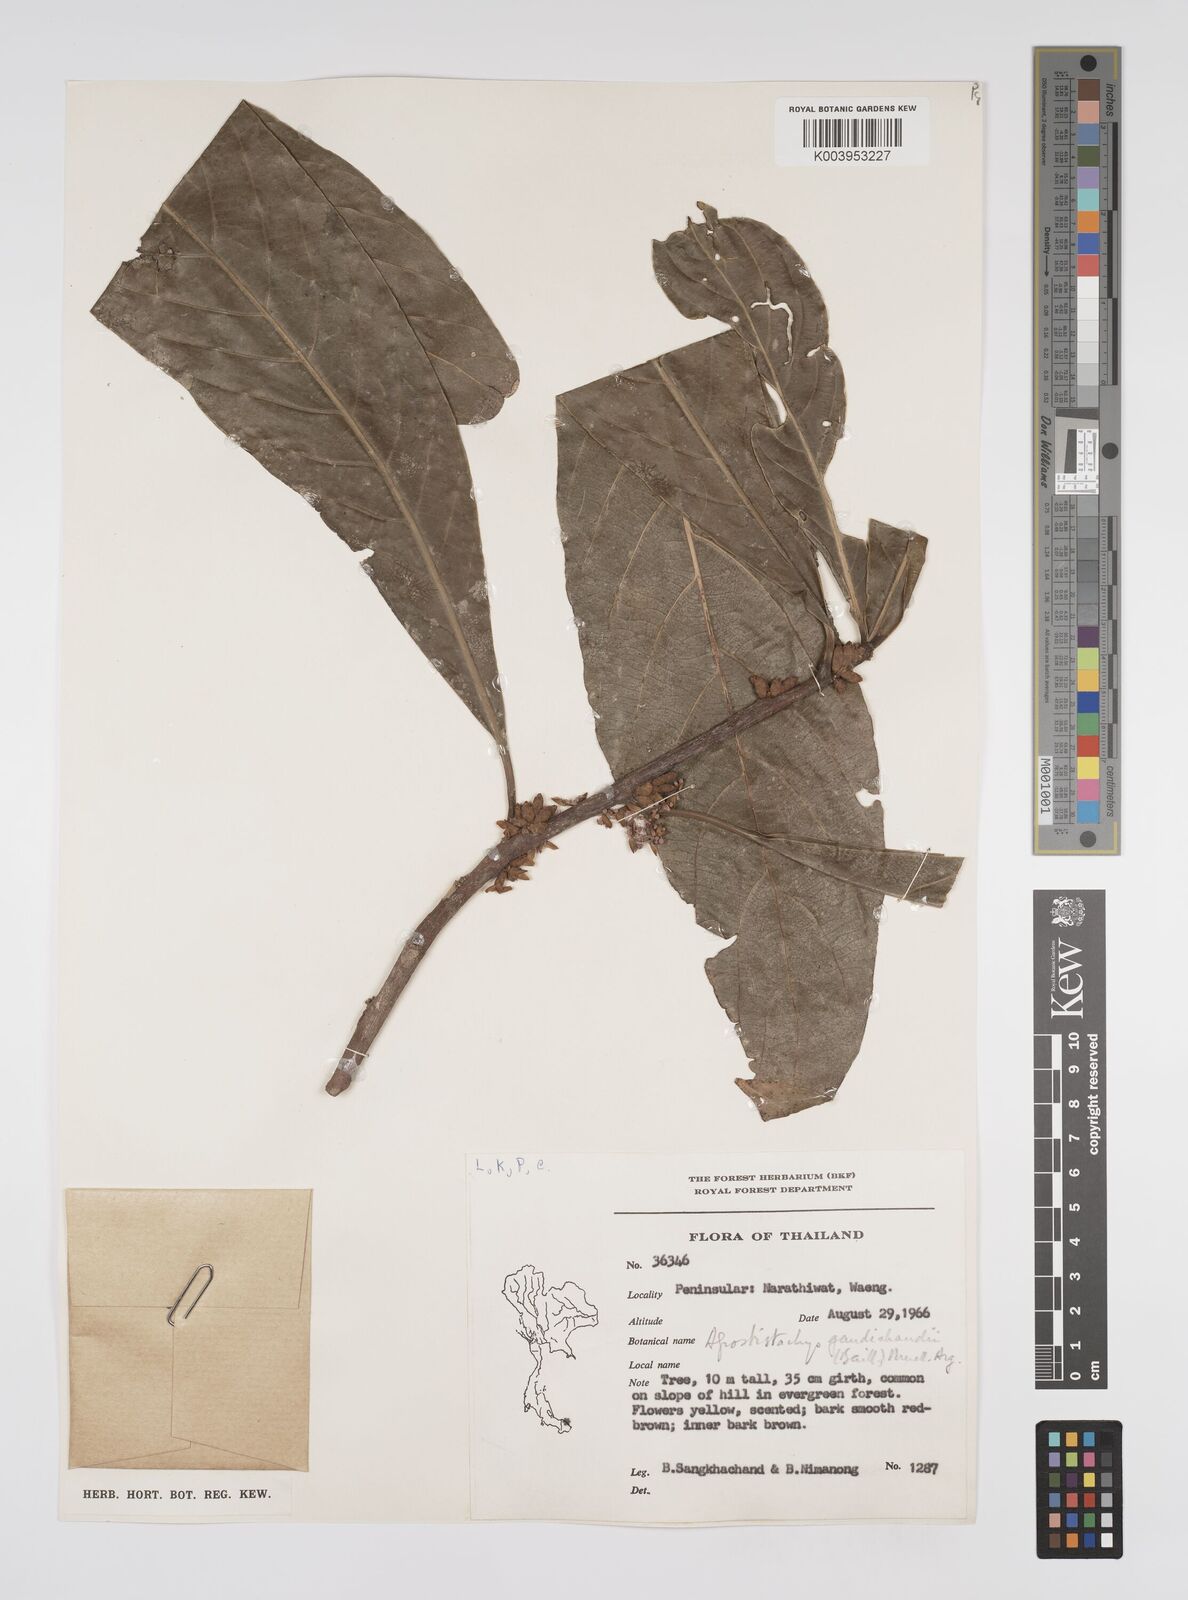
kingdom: Plantae
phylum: Tracheophyta
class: Magnoliopsida
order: Malpighiales
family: Euphorbiaceae
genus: Agrostistachys
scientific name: Agrostistachys gaudichaudii
